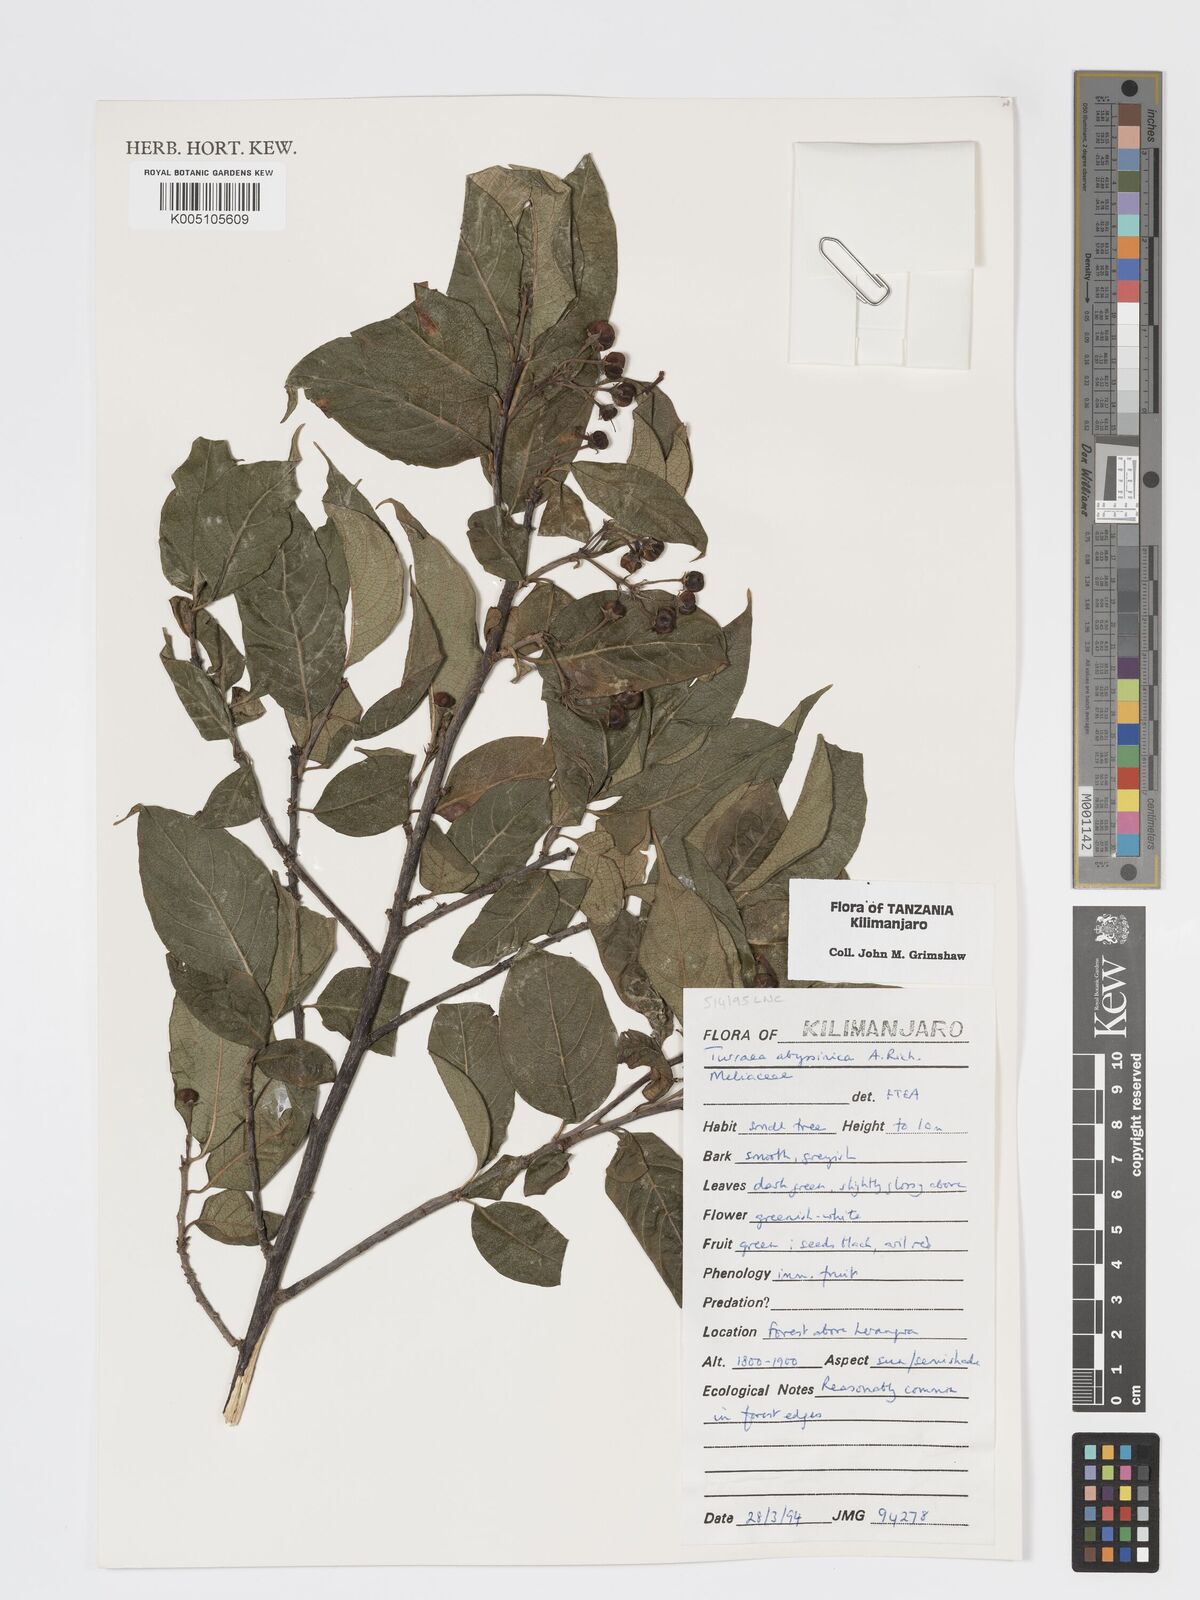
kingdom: Plantae
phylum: Tracheophyta
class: Magnoliopsida
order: Sapindales
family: Meliaceae
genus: Turraea
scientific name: Turraea abyssinica
